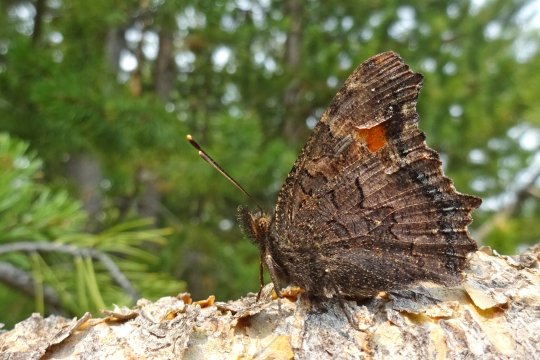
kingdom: Animalia
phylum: Arthropoda
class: Insecta
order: Lepidoptera
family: Nymphalidae
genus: Aglais
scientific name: Aglais milberti
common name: Milbert's Tortoiseshell
